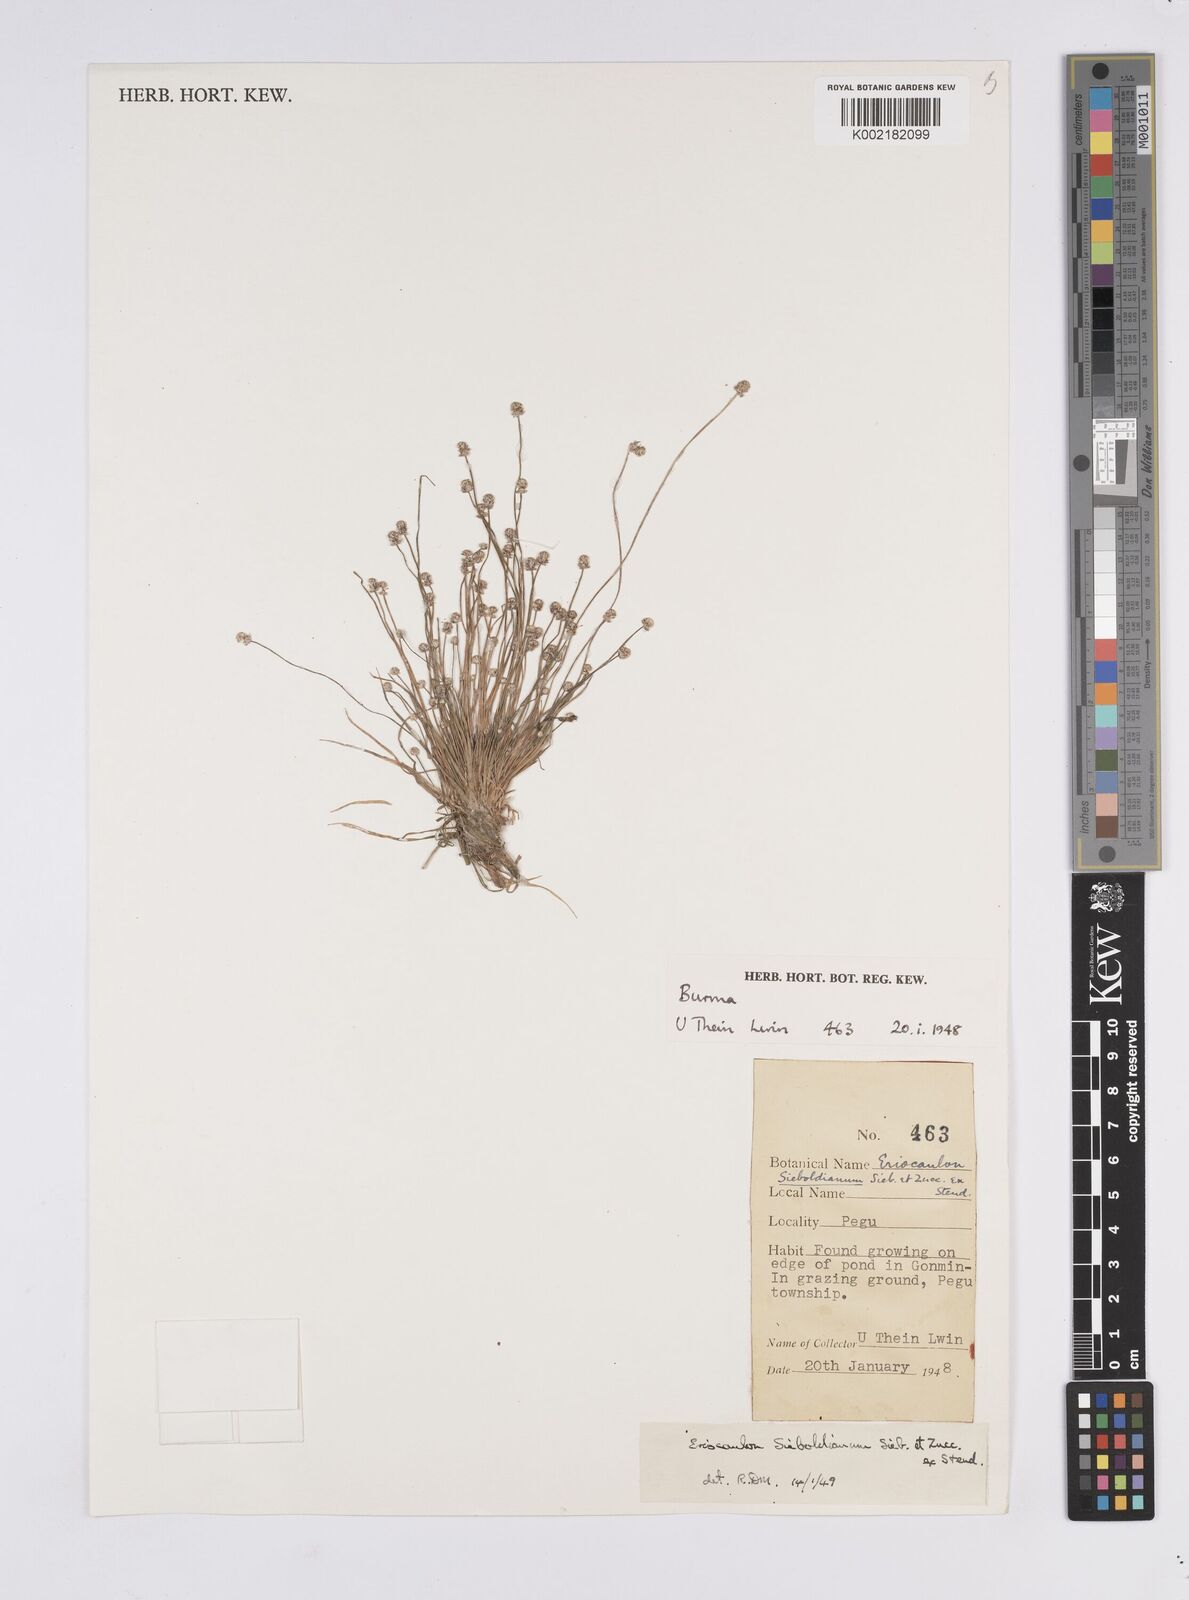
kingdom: Plantae
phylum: Tracheophyta
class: Liliopsida
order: Poales
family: Eriocaulaceae
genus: Eriocaulon
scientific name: Eriocaulon cinereum
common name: Ashy pipewort
